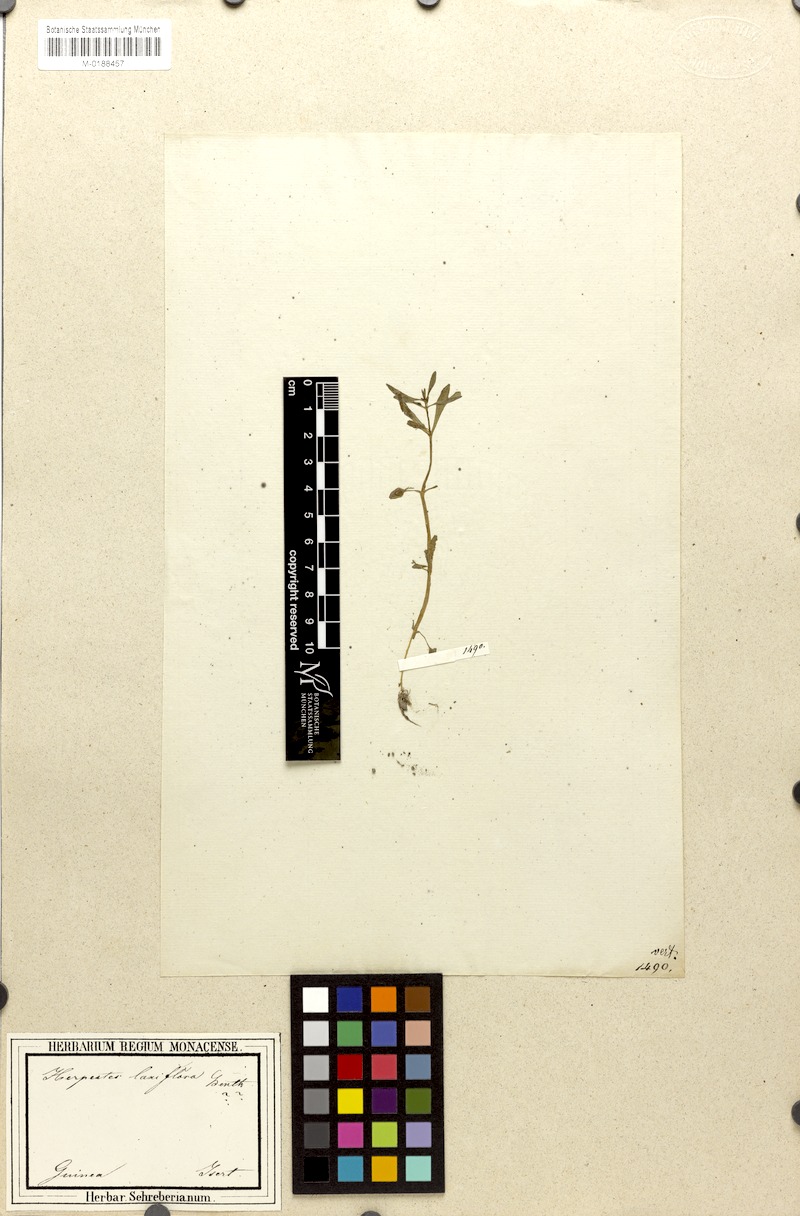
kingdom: Plantae
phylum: Tracheophyta
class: Magnoliopsida
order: Lamiales
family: Plantaginaceae
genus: Bacopa
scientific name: Bacopa laxiflora
